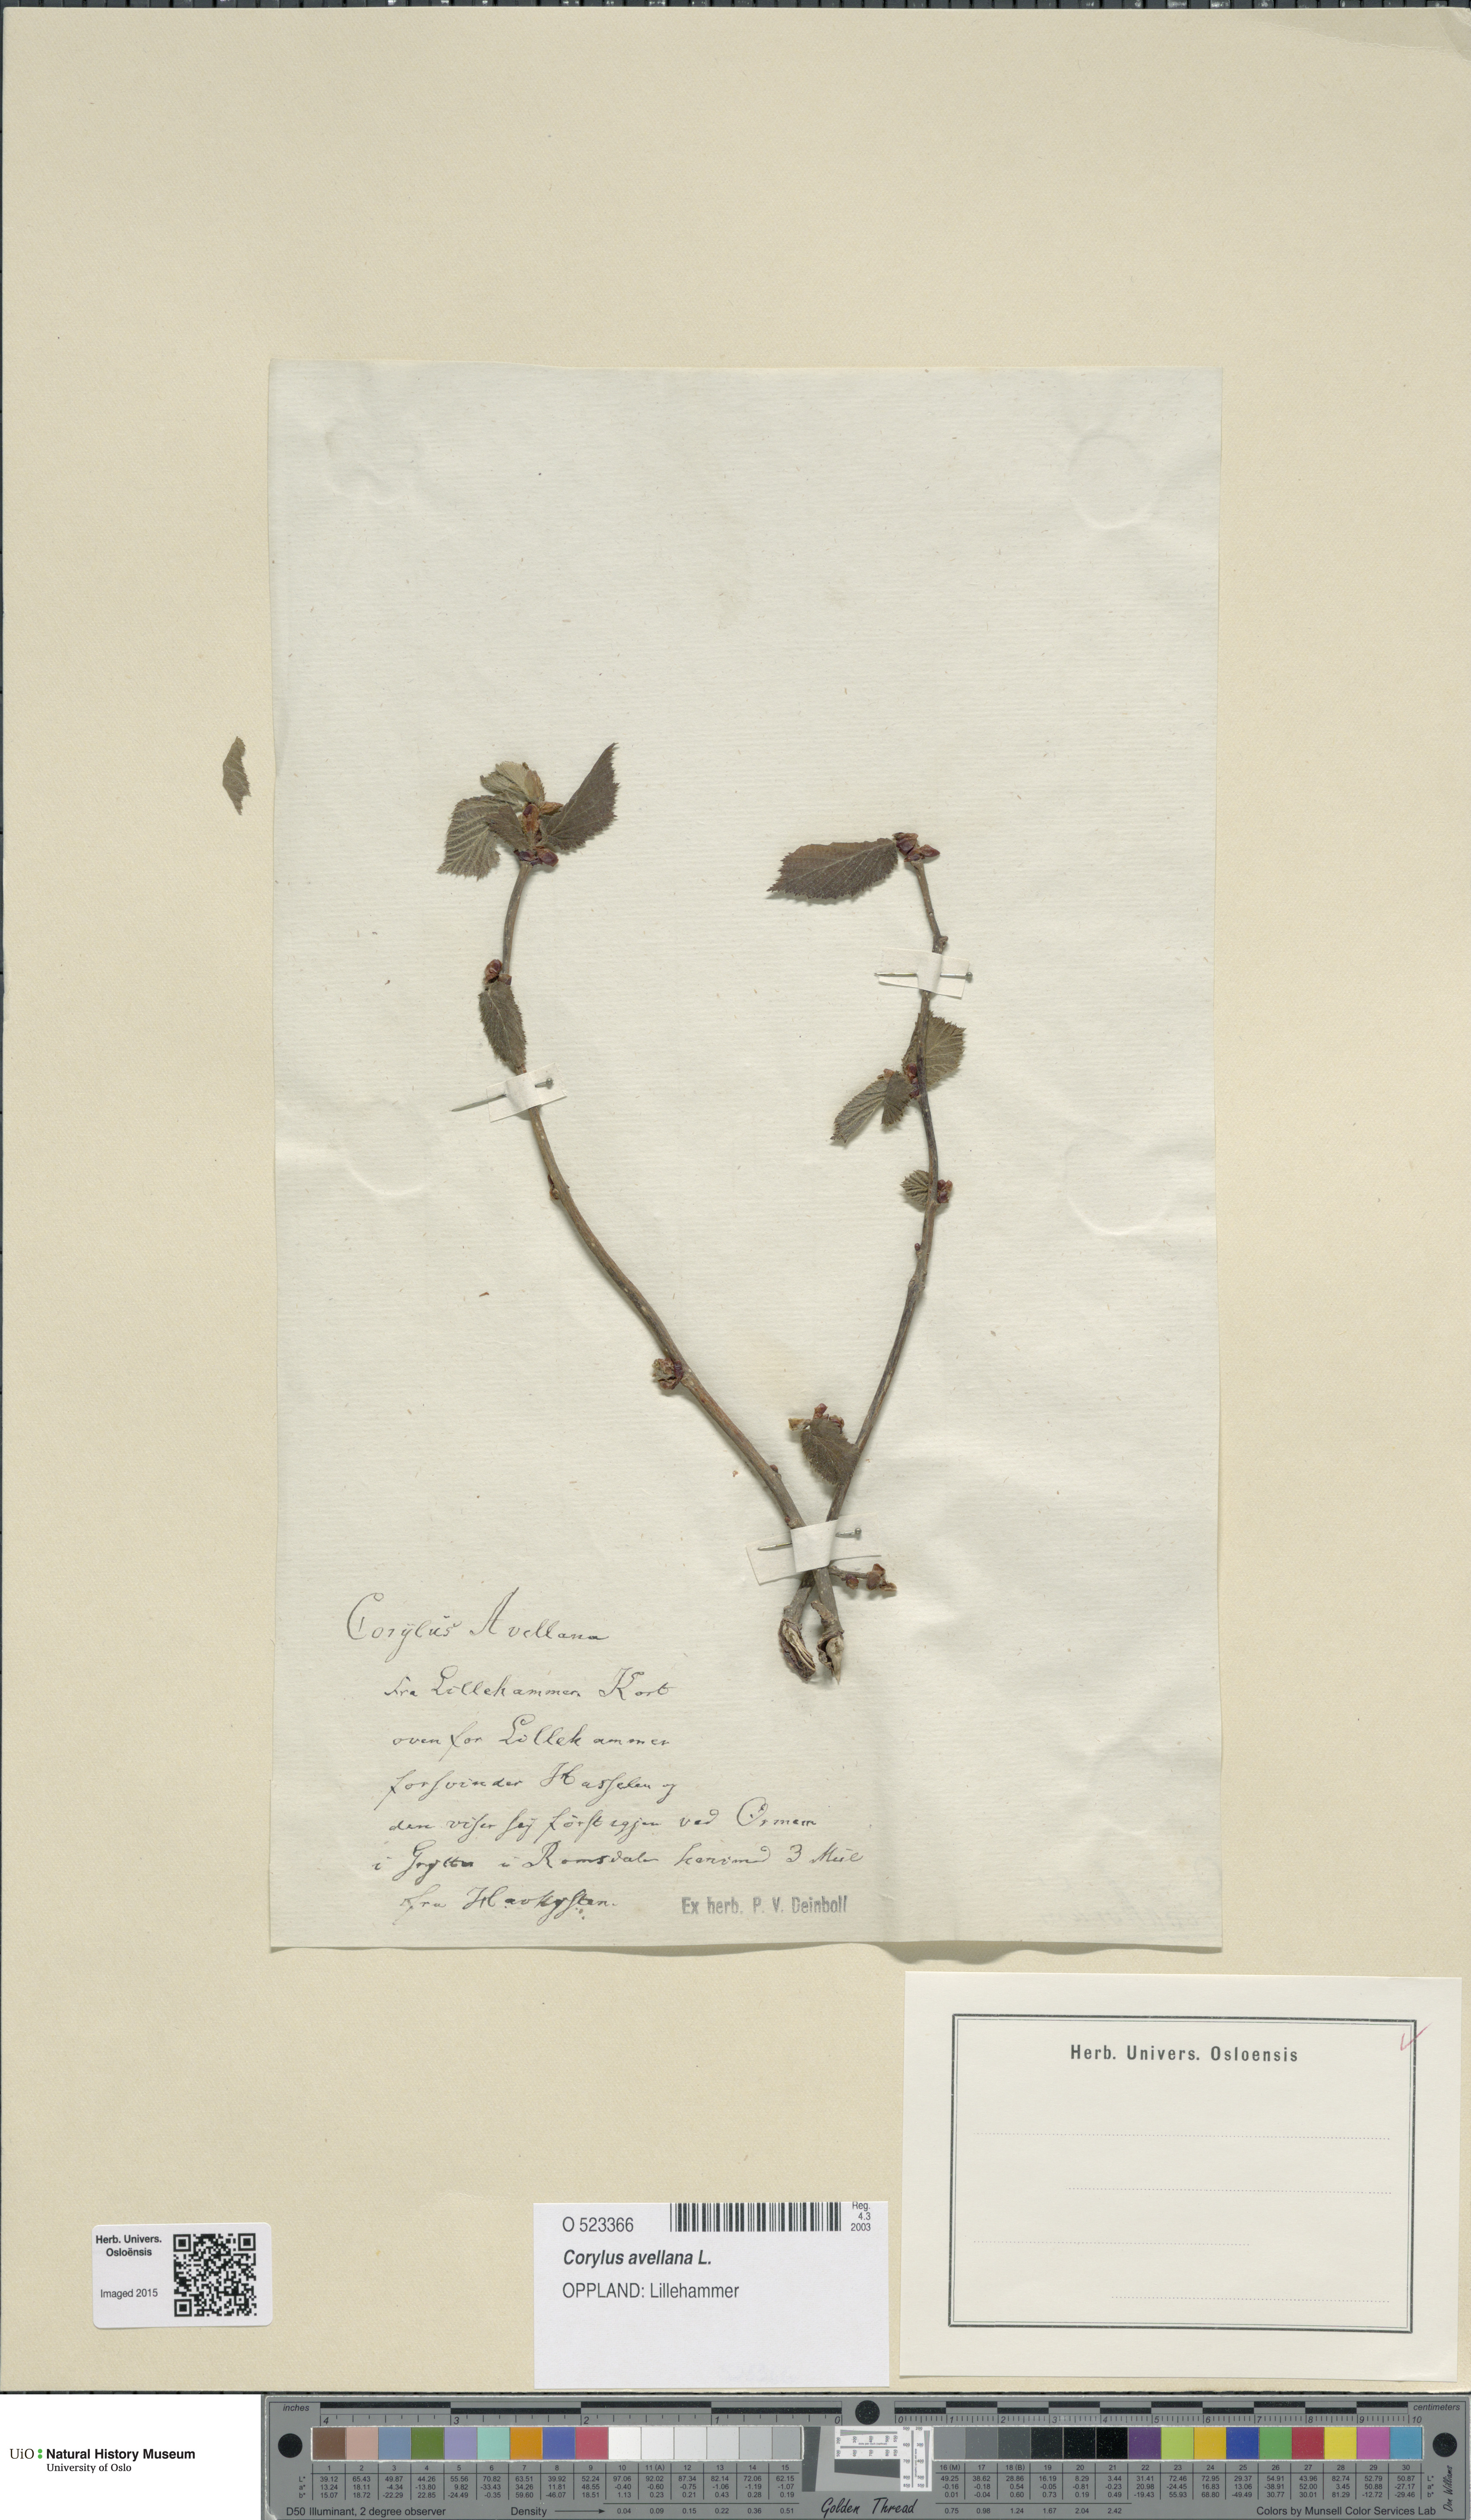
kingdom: Plantae
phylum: Tracheophyta
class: Magnoliopsida
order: Fagales
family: Betulaceae
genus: Corylus
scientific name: Corylus avellana
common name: European hazel
